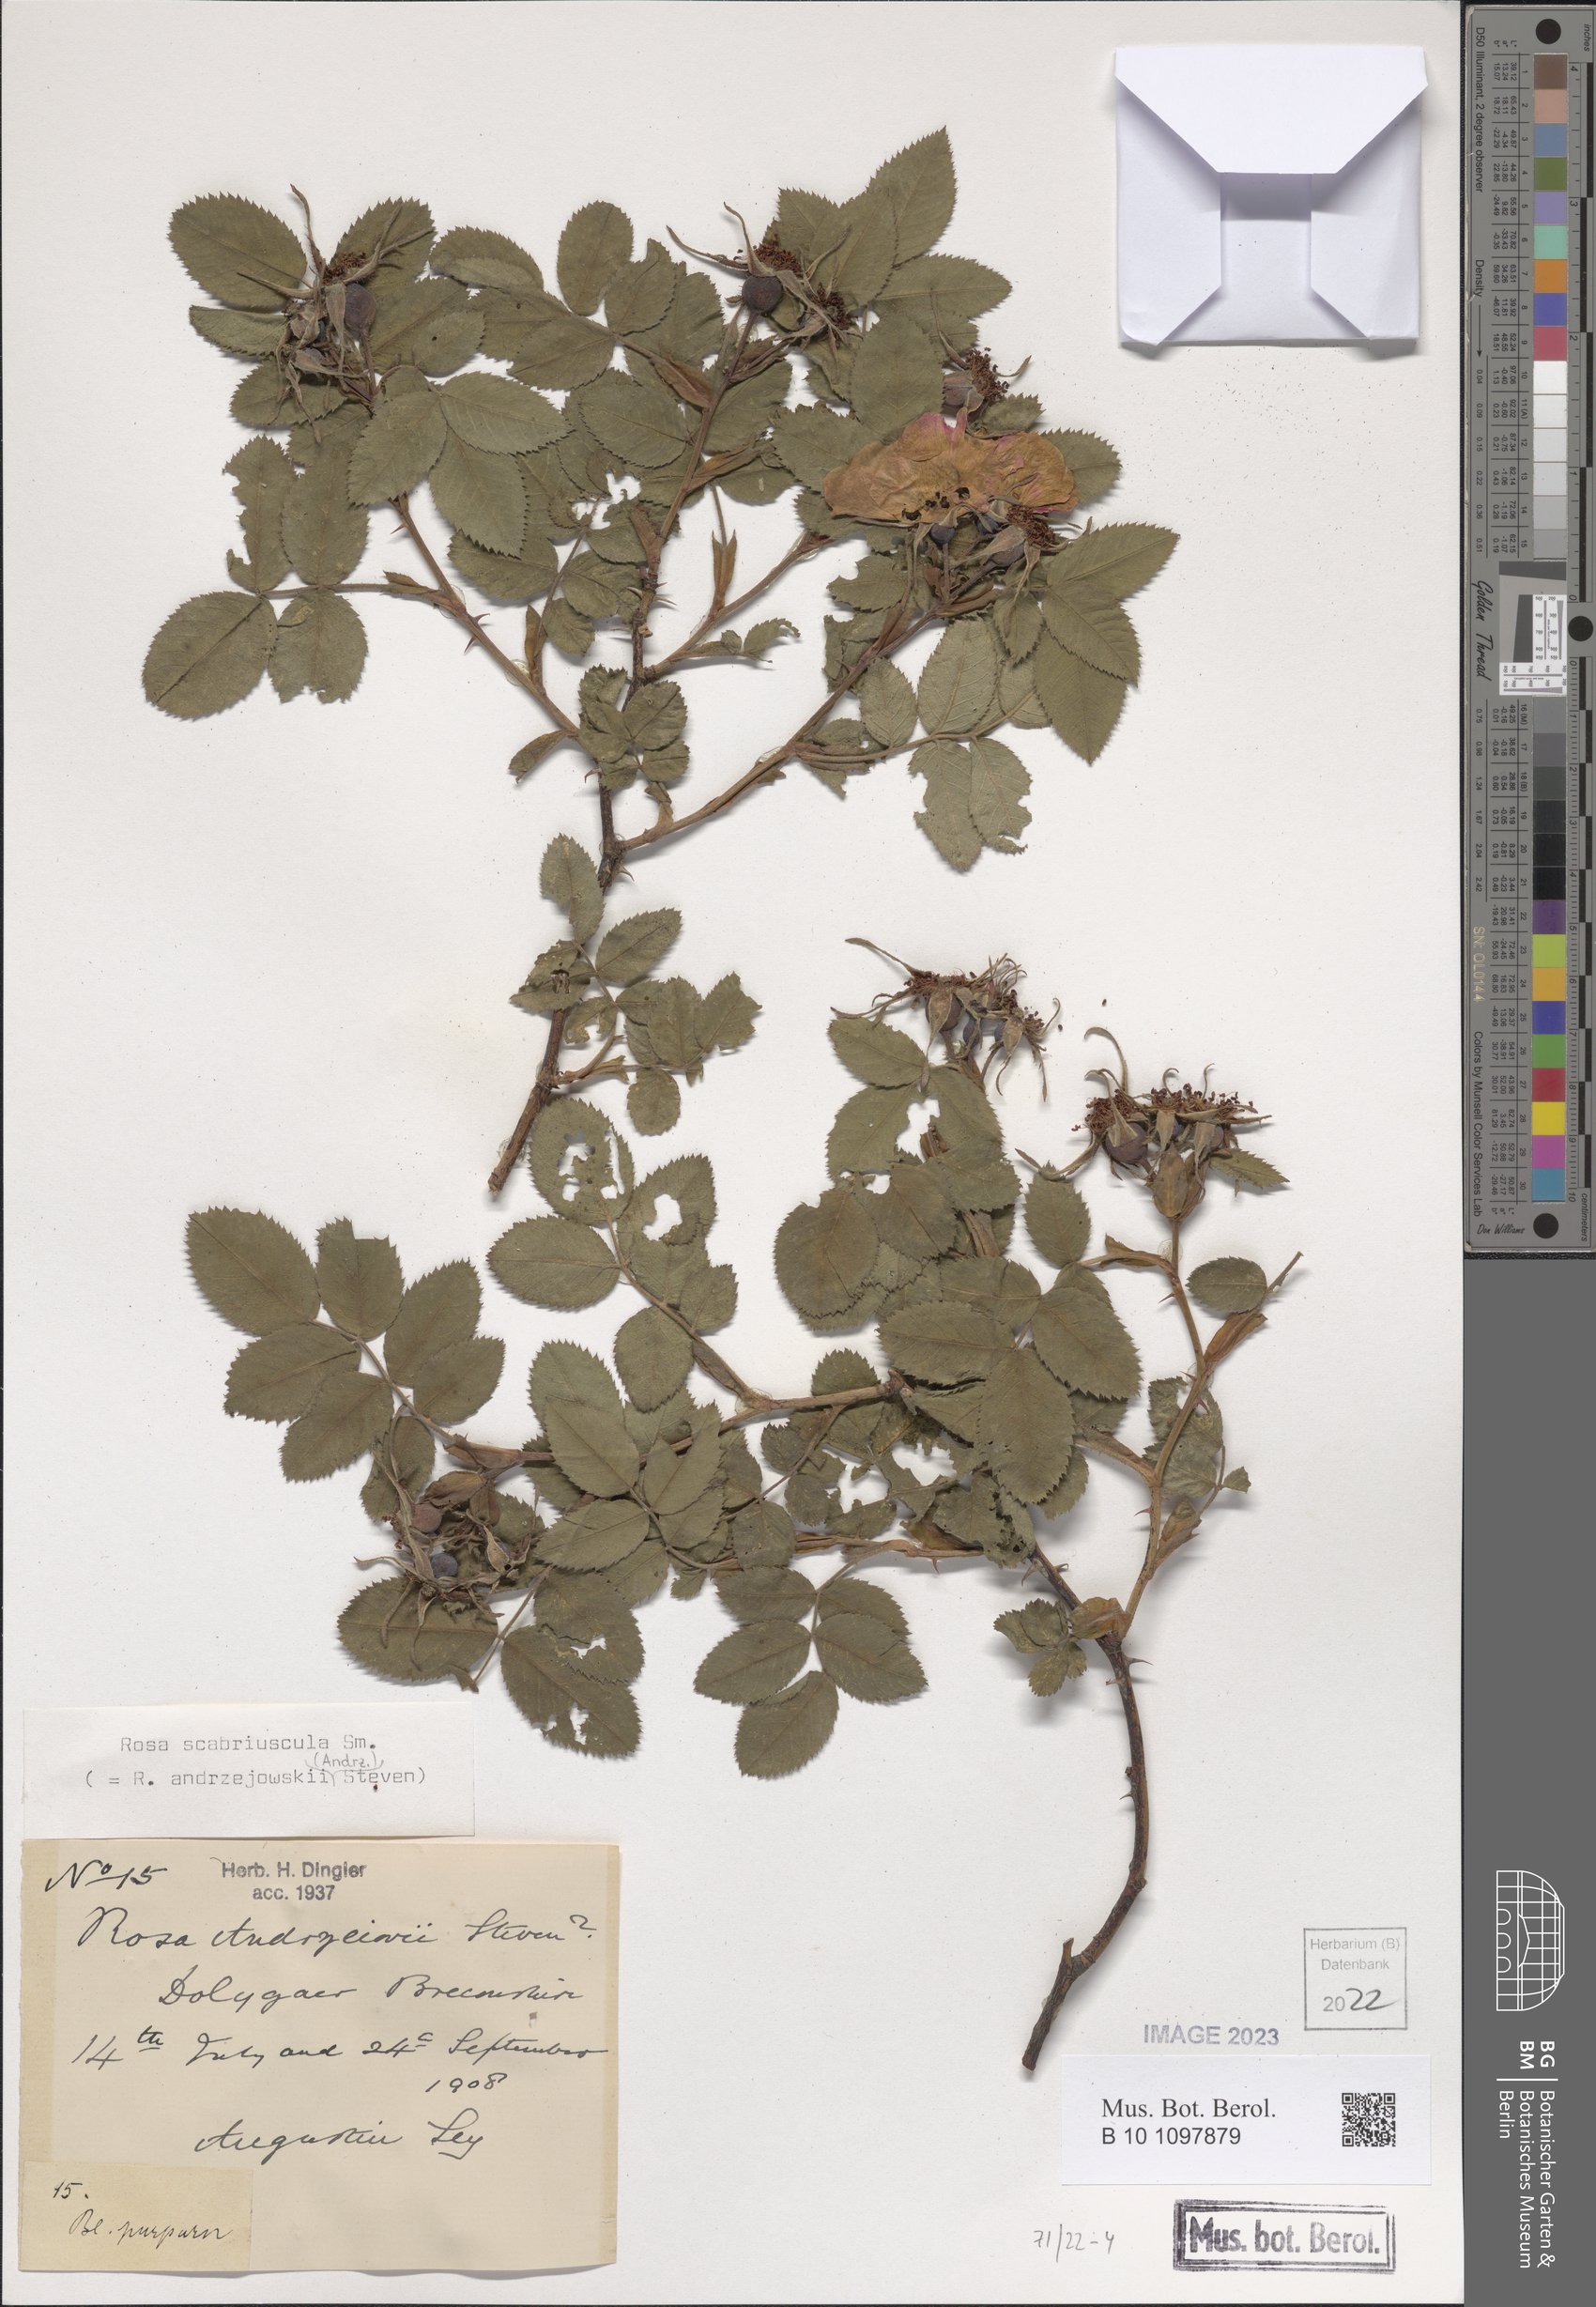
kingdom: Plantae
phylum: Tracheophyta
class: Magnoliopsida
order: Rosales
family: Rosaceae
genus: Rosa
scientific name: Rosa scabriuscula
